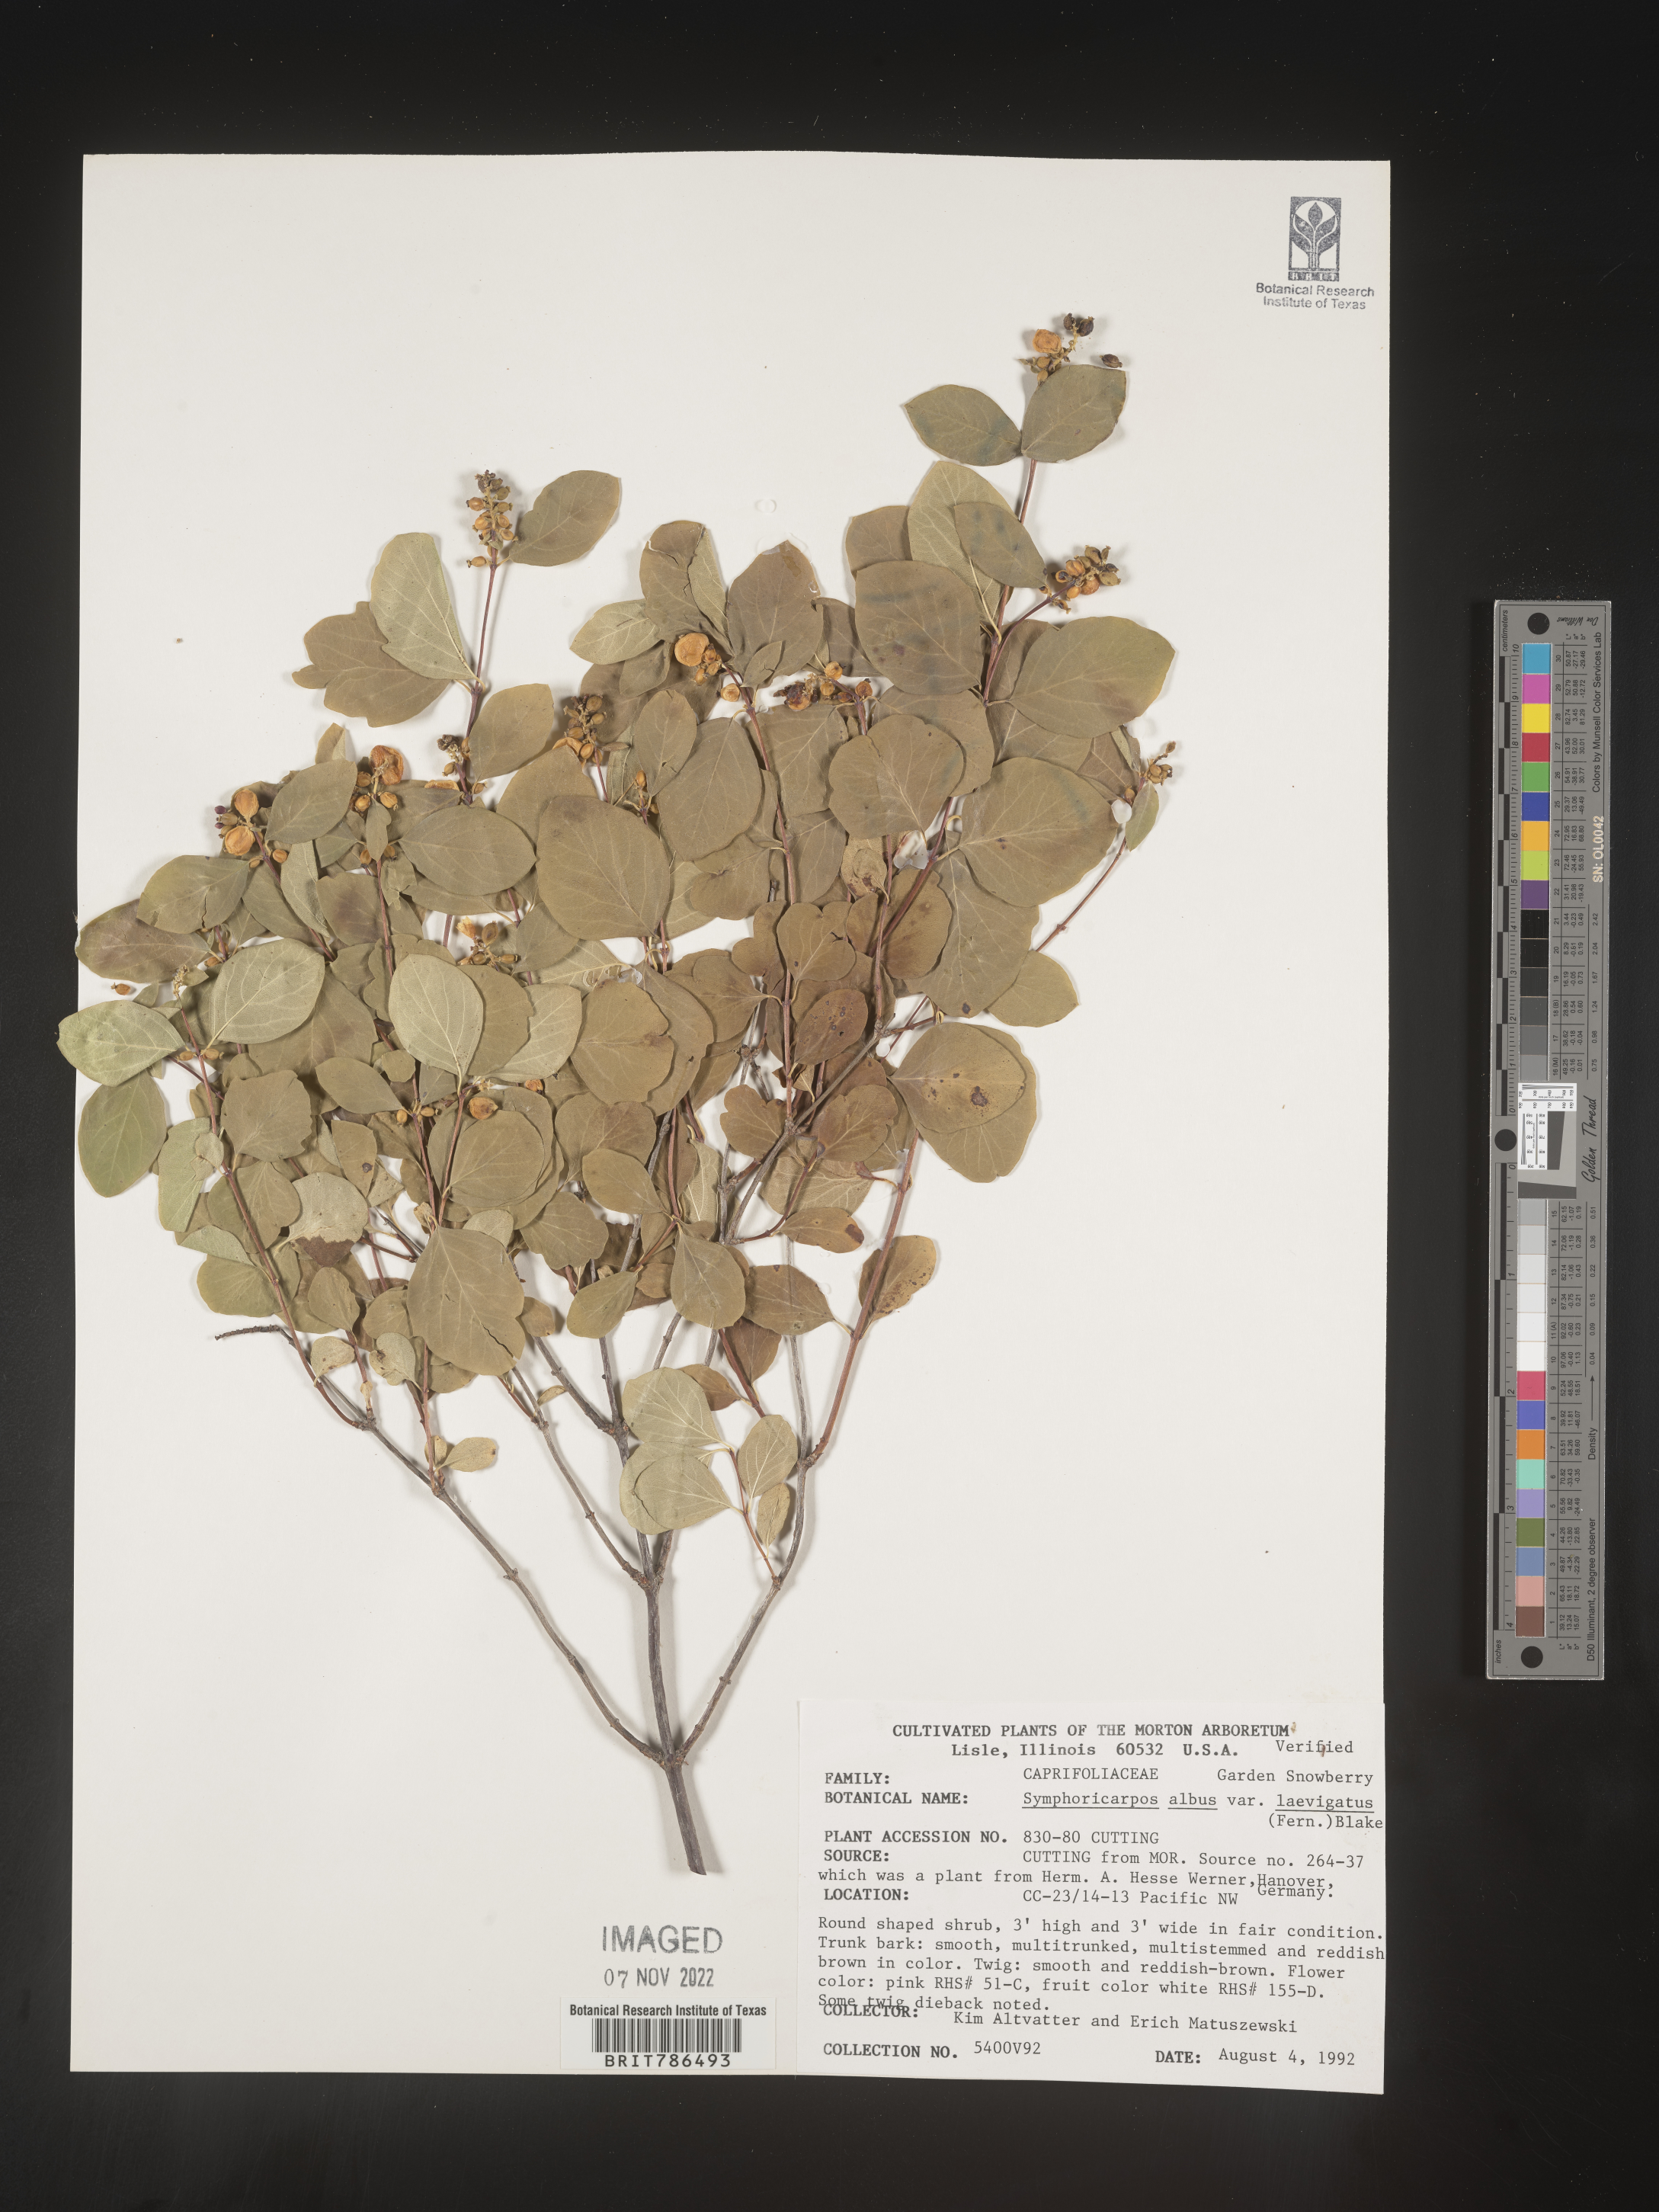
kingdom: Plantae
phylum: Tracheophyta
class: Magnoliopsida
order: Dipsacales
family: Caprifoliaceae
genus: Symphoricarpos
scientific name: Symphoricarpos
